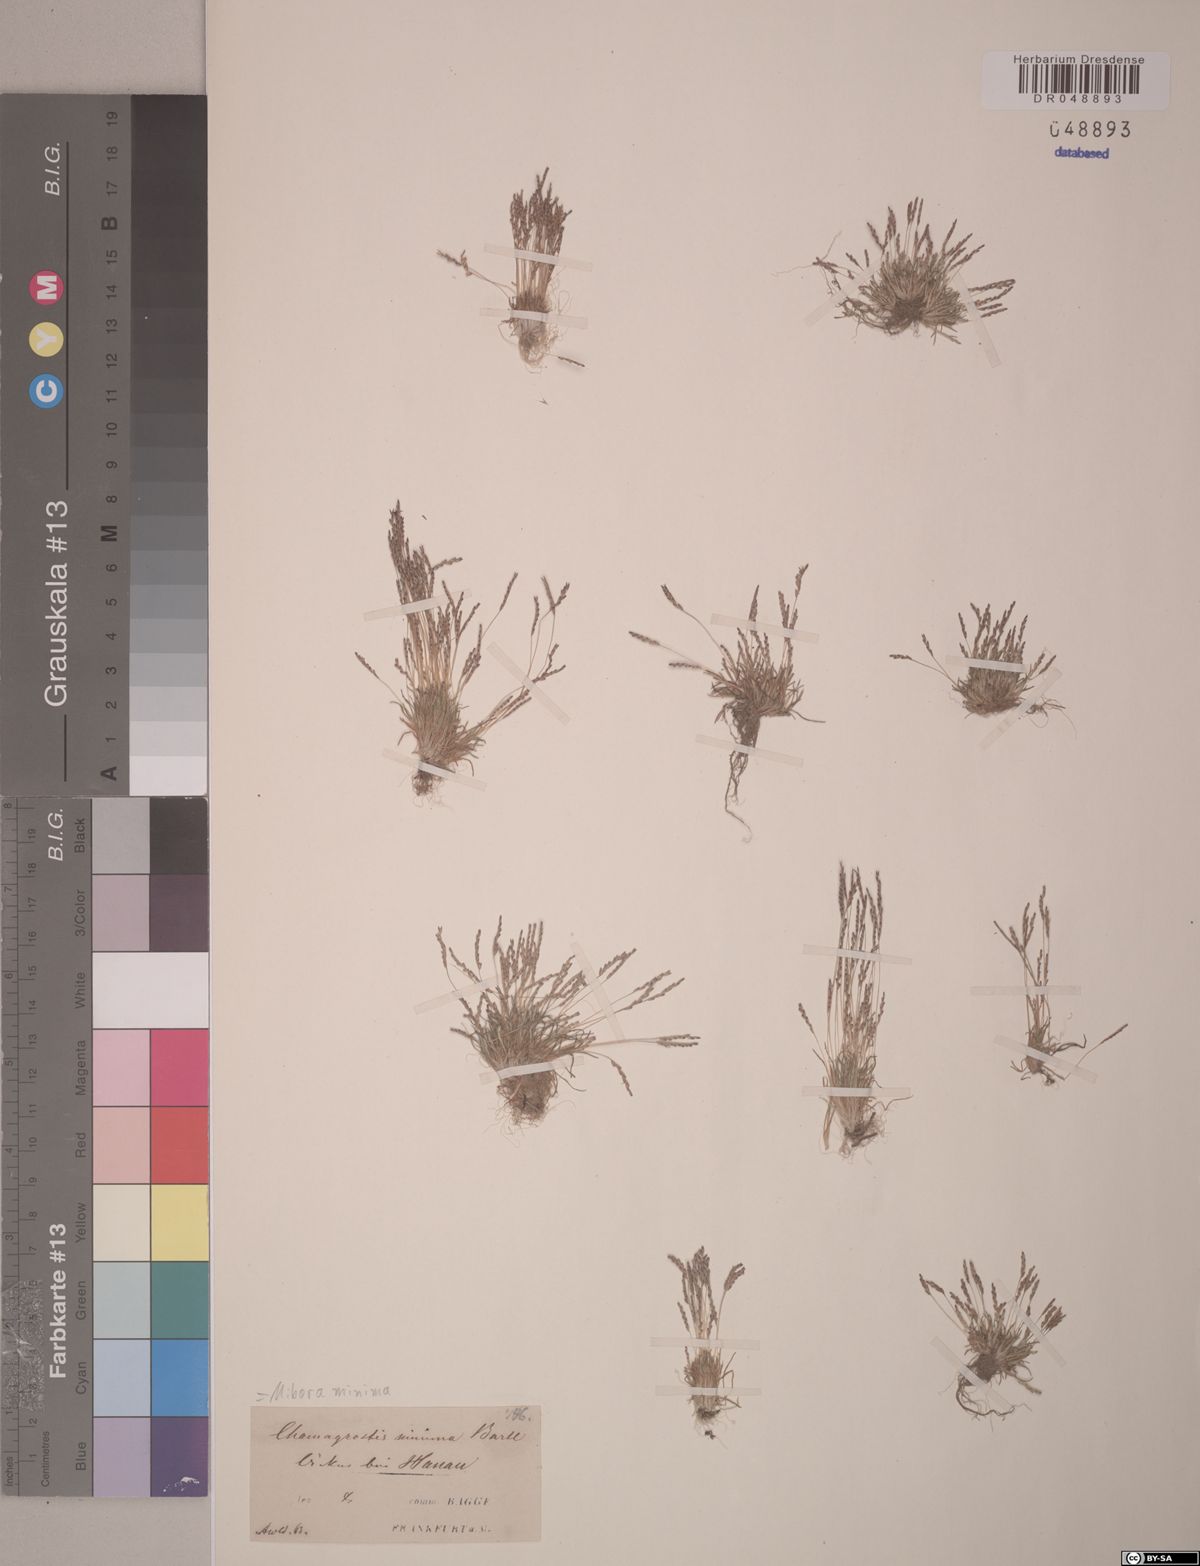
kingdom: Plantae
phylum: Tracheophyta
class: Liliopsida
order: Poales
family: Poaceae
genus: Mibora
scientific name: Mibora minima
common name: Early sand-grass
